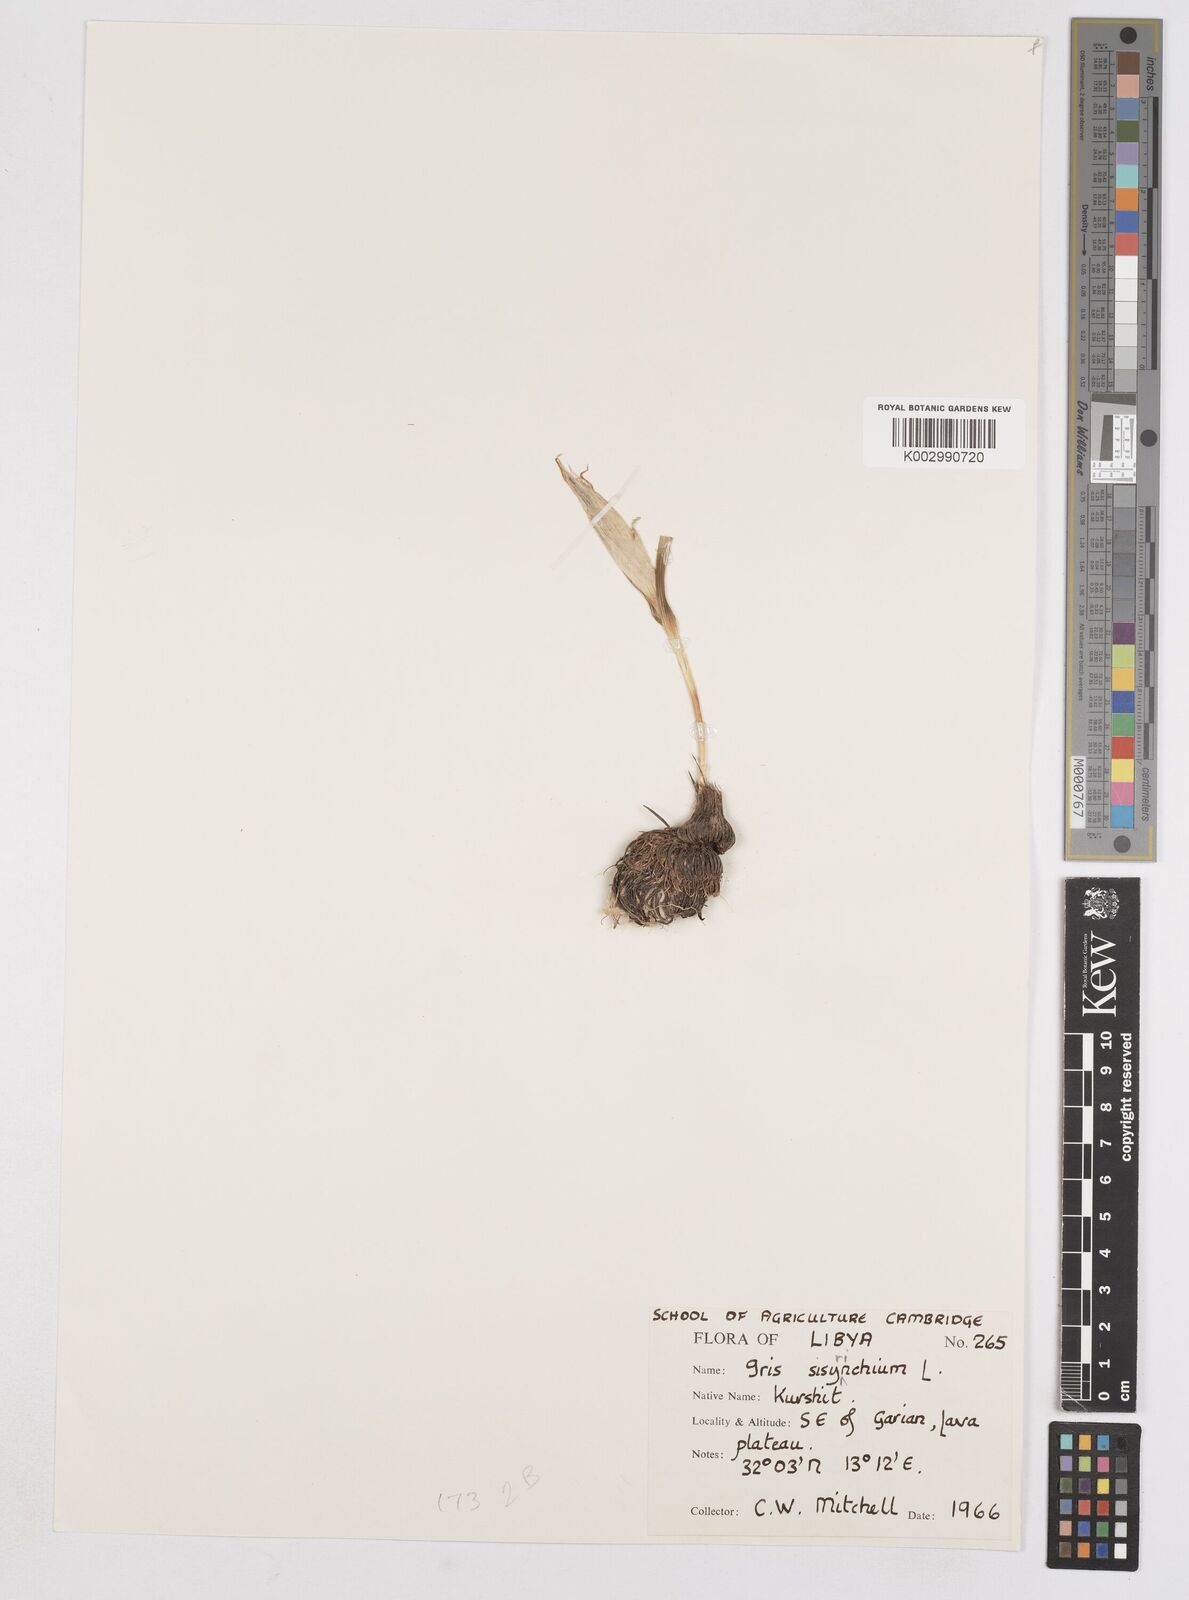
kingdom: Plantae
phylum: Tracheophyta
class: Liliopsida
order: Asparagales
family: Iridaceae
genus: Moraea
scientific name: Moraea sisyrinchium
